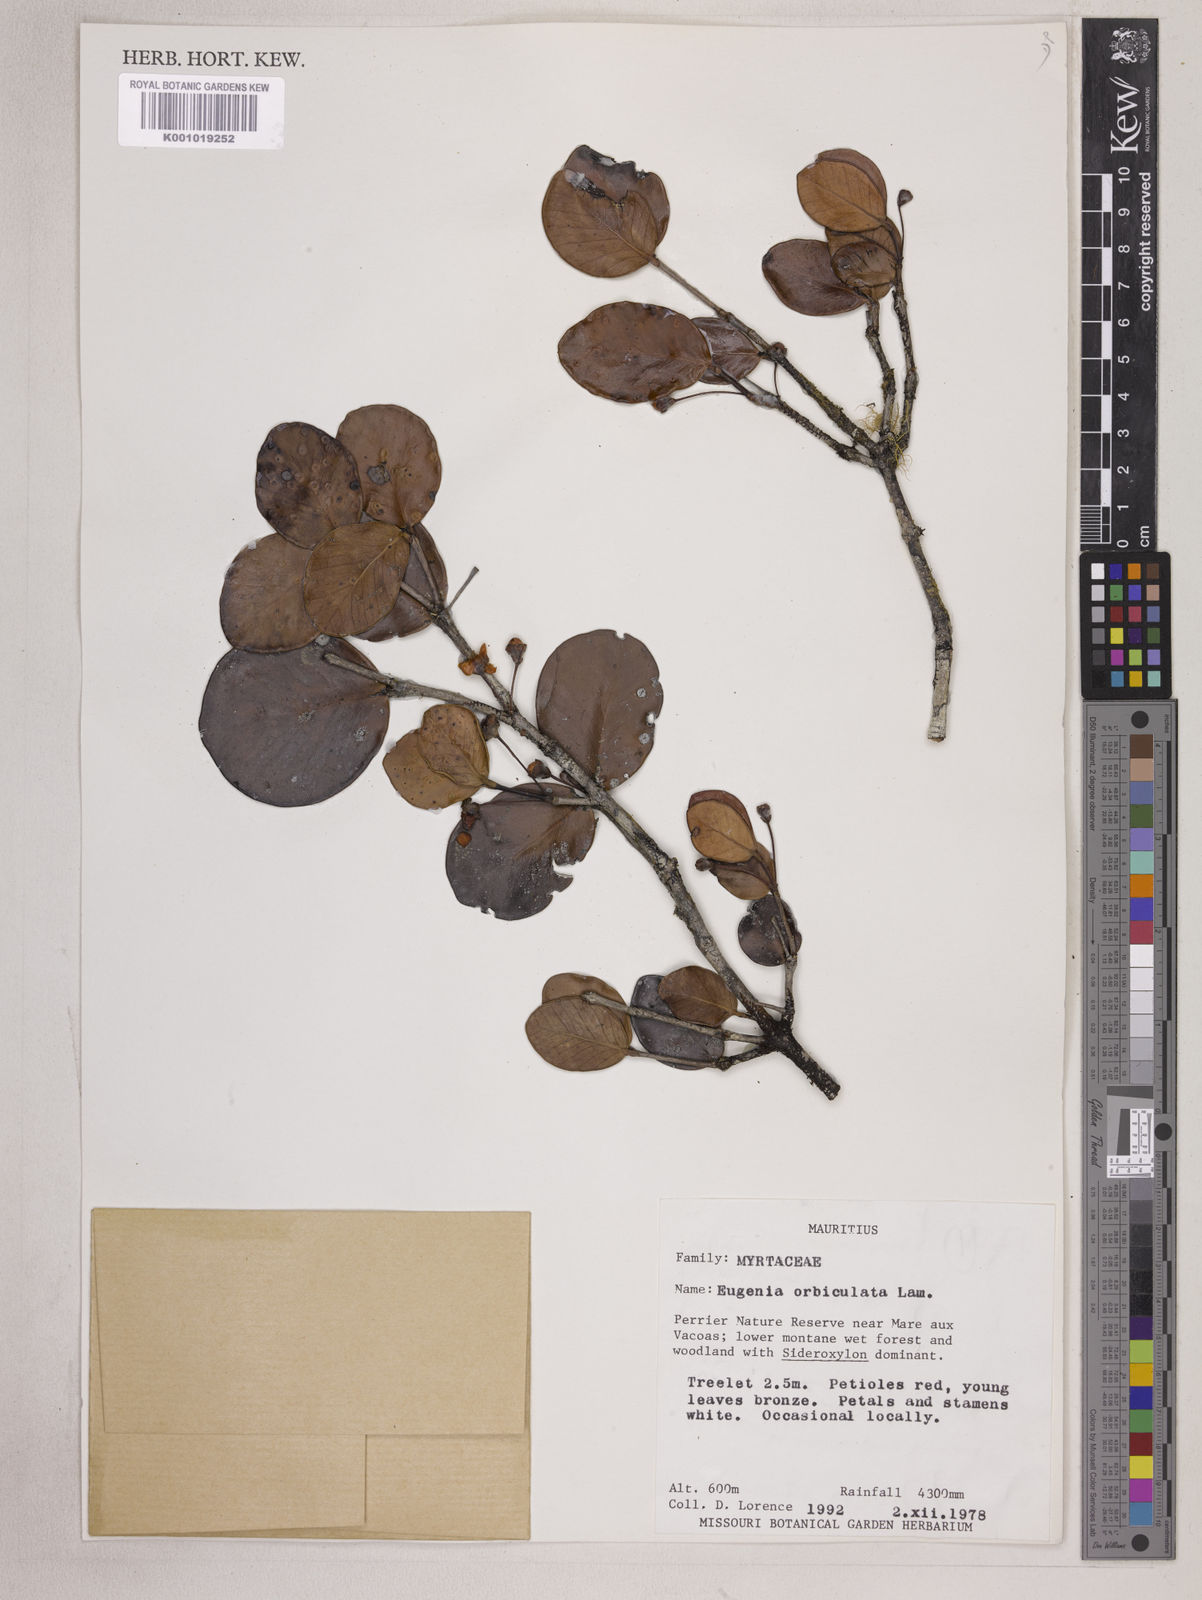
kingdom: Plantae
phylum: Tracheophyta
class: Magnoliopsida
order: Myrtales
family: Myrtaceae
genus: Eugenia
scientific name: Eugenia orbiculata
